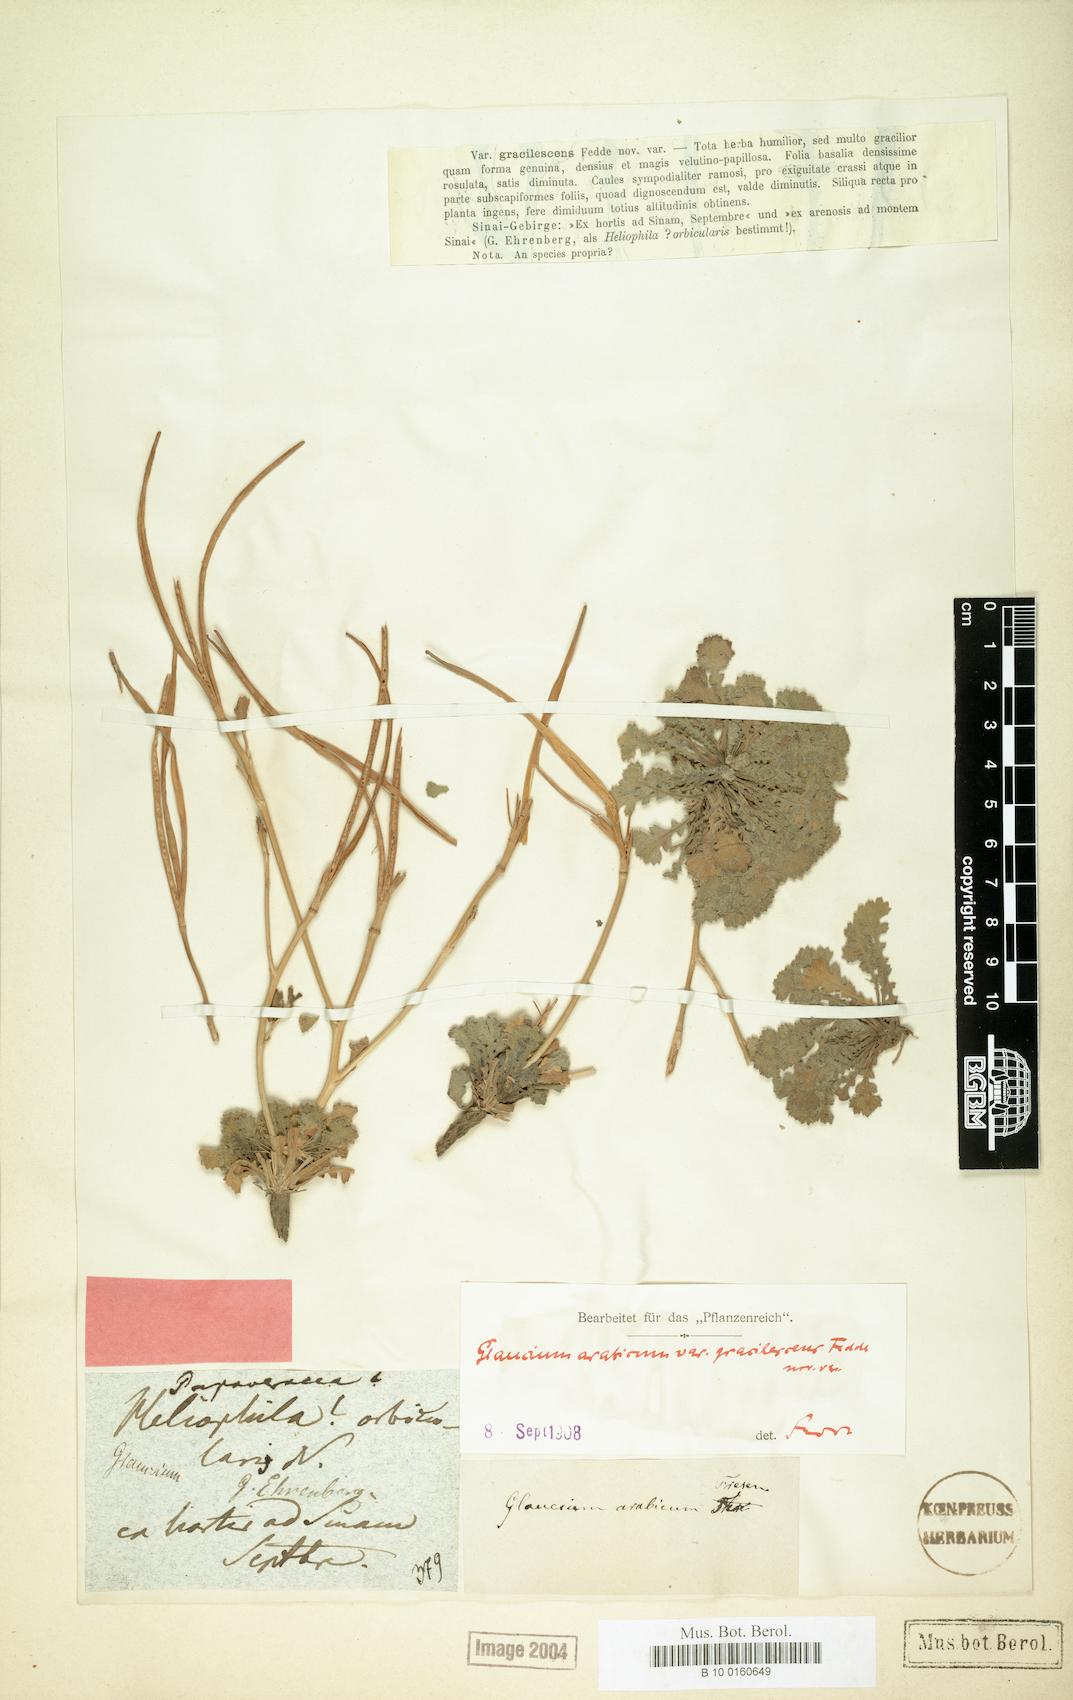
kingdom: Plantae
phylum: Tracheophyta
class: Magnoliopsida
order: Ranunculales
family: Papaveraceae
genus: Glaucium
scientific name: Glaucium arabicum
